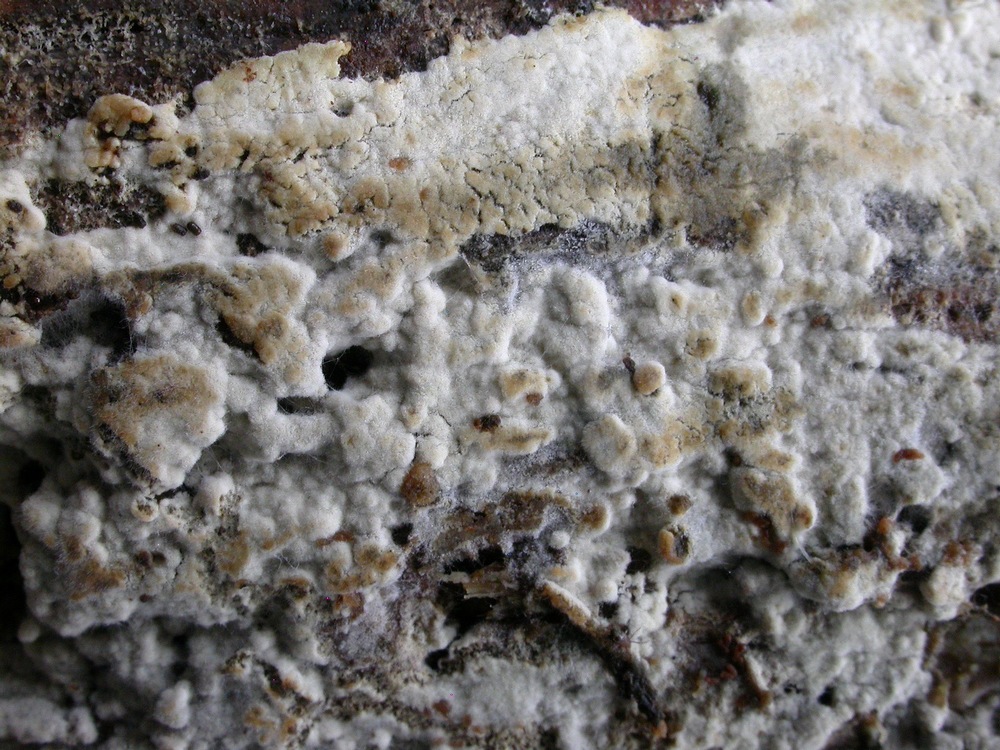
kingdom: Fungi
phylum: Basidiomycota
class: Agaricomycetes
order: Cantharellales
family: Botryobasidiaceae
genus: Botryobasidium
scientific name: Botryobasidium subcoronatum
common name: almindelig spindhinde
